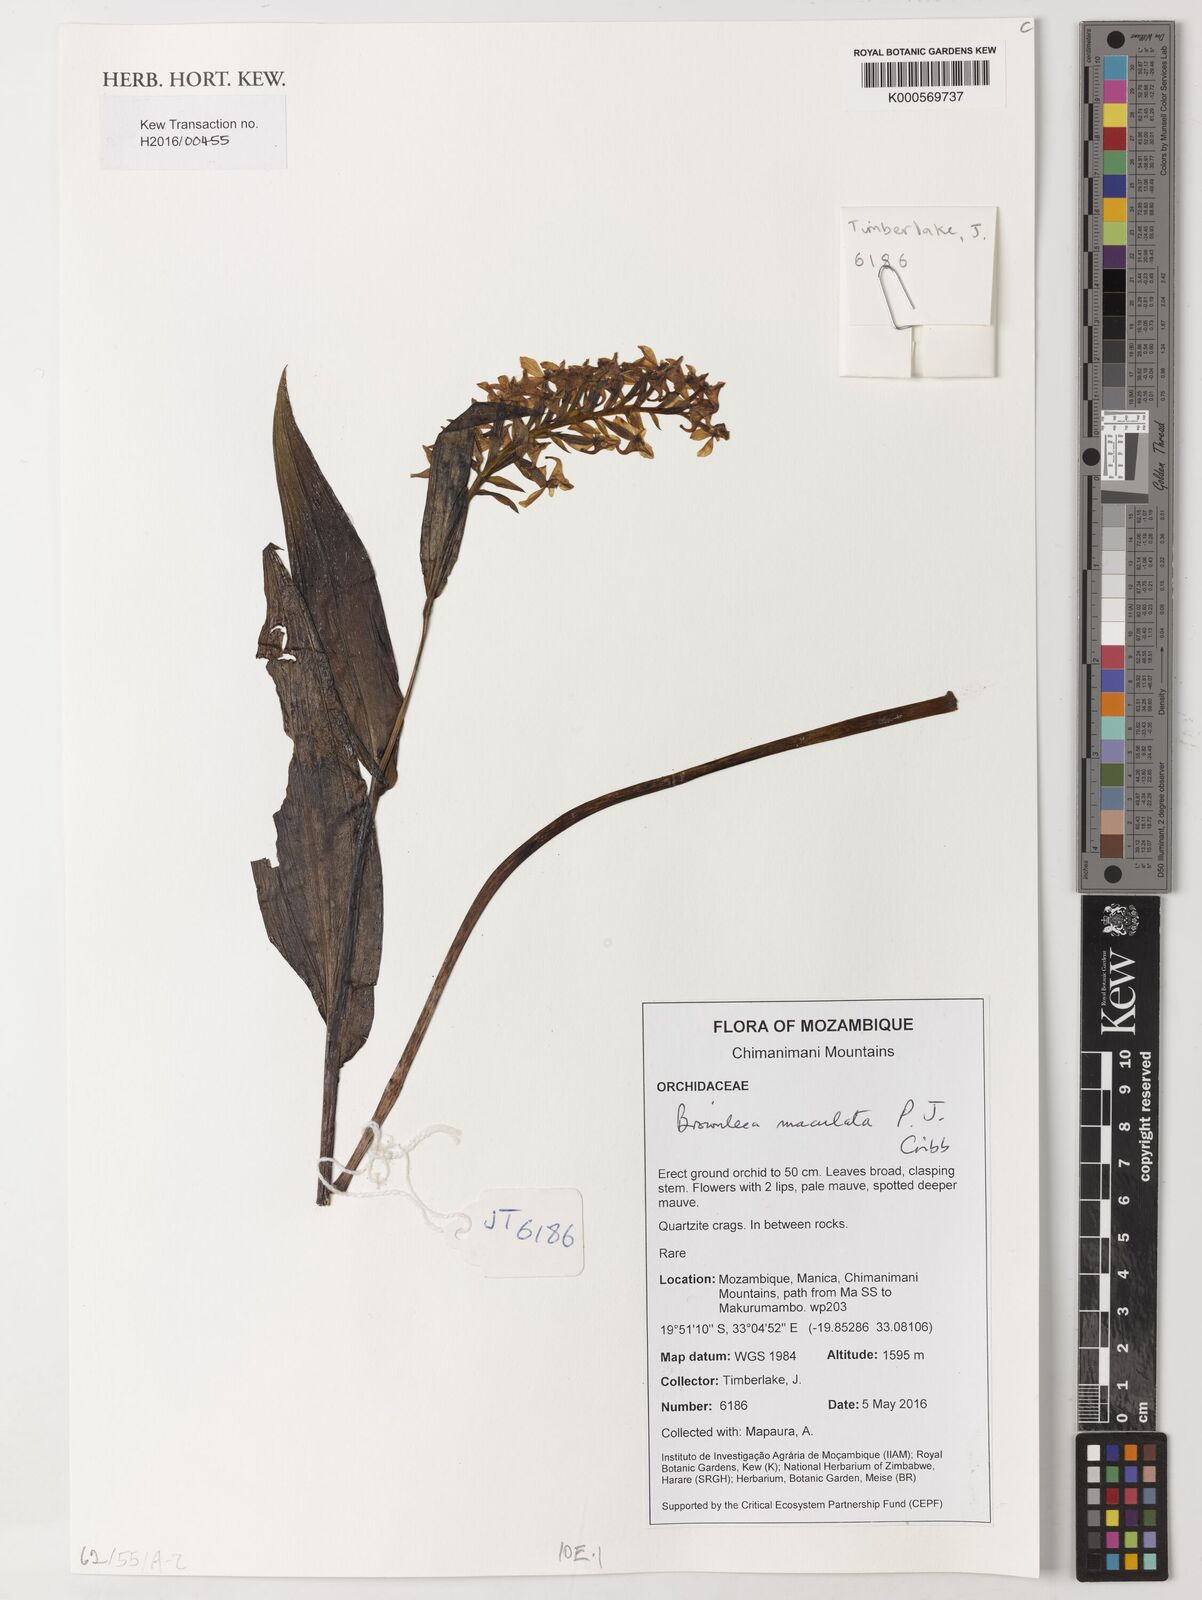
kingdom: Plantae
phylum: Tracheophyta
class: Liliopsida
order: Asparagales
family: Orchidaceae
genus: Brownleea
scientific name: Brownleea maculata
